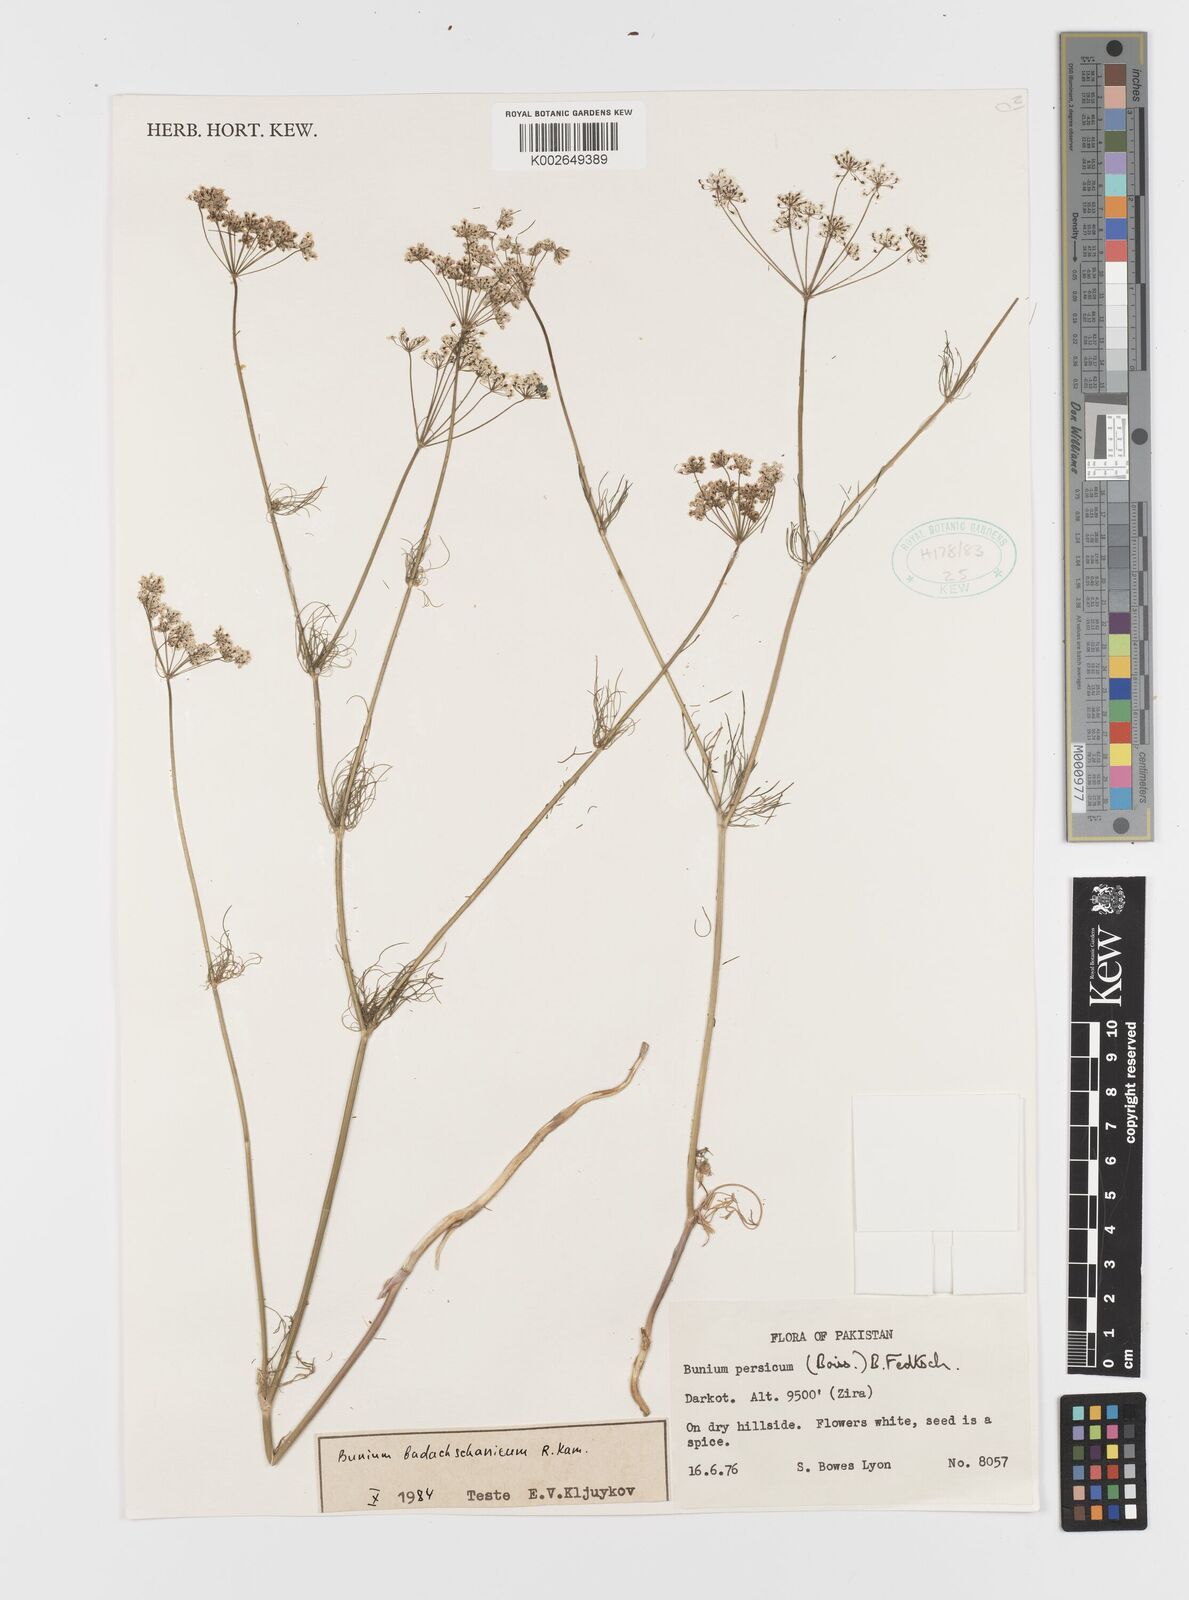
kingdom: Plantae
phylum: Tracheophyta
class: Magnoliopsida
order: Apiales
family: Apiaceae
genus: Elwendia
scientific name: Elwendia badachschanica
